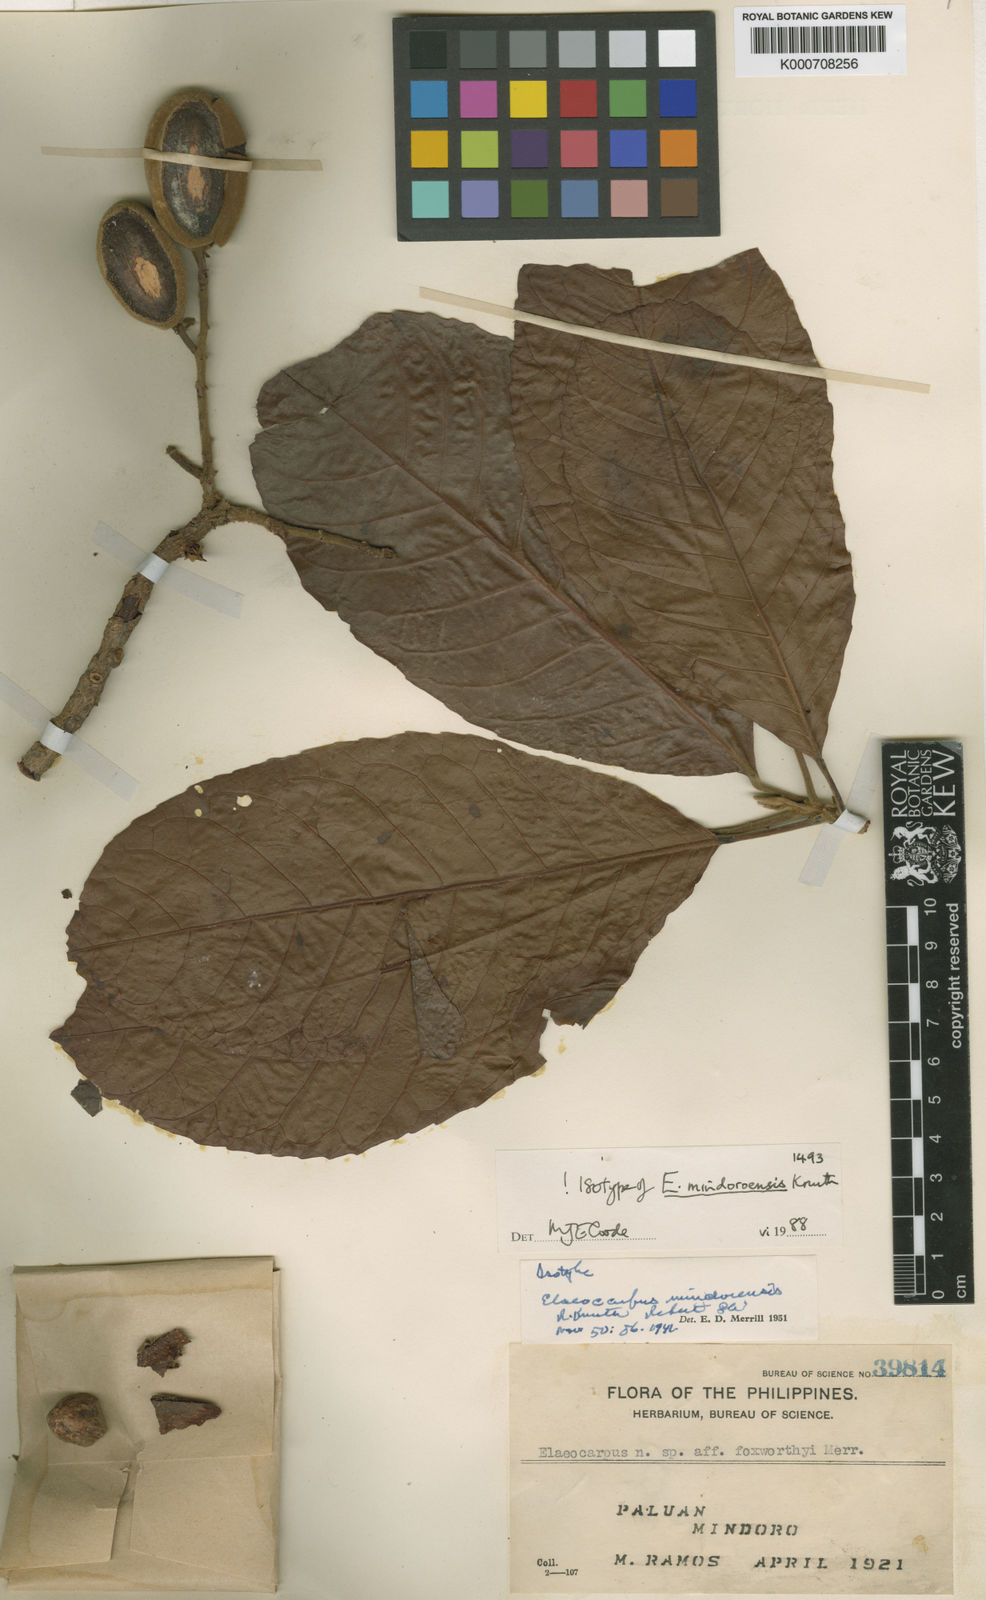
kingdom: Plantae
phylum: Tracheophyta
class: Magnoliopsida
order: Oxalidales
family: Elaeocarpaceae
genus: Elaeocarpus
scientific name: Elaeocarpus mindoroensis
